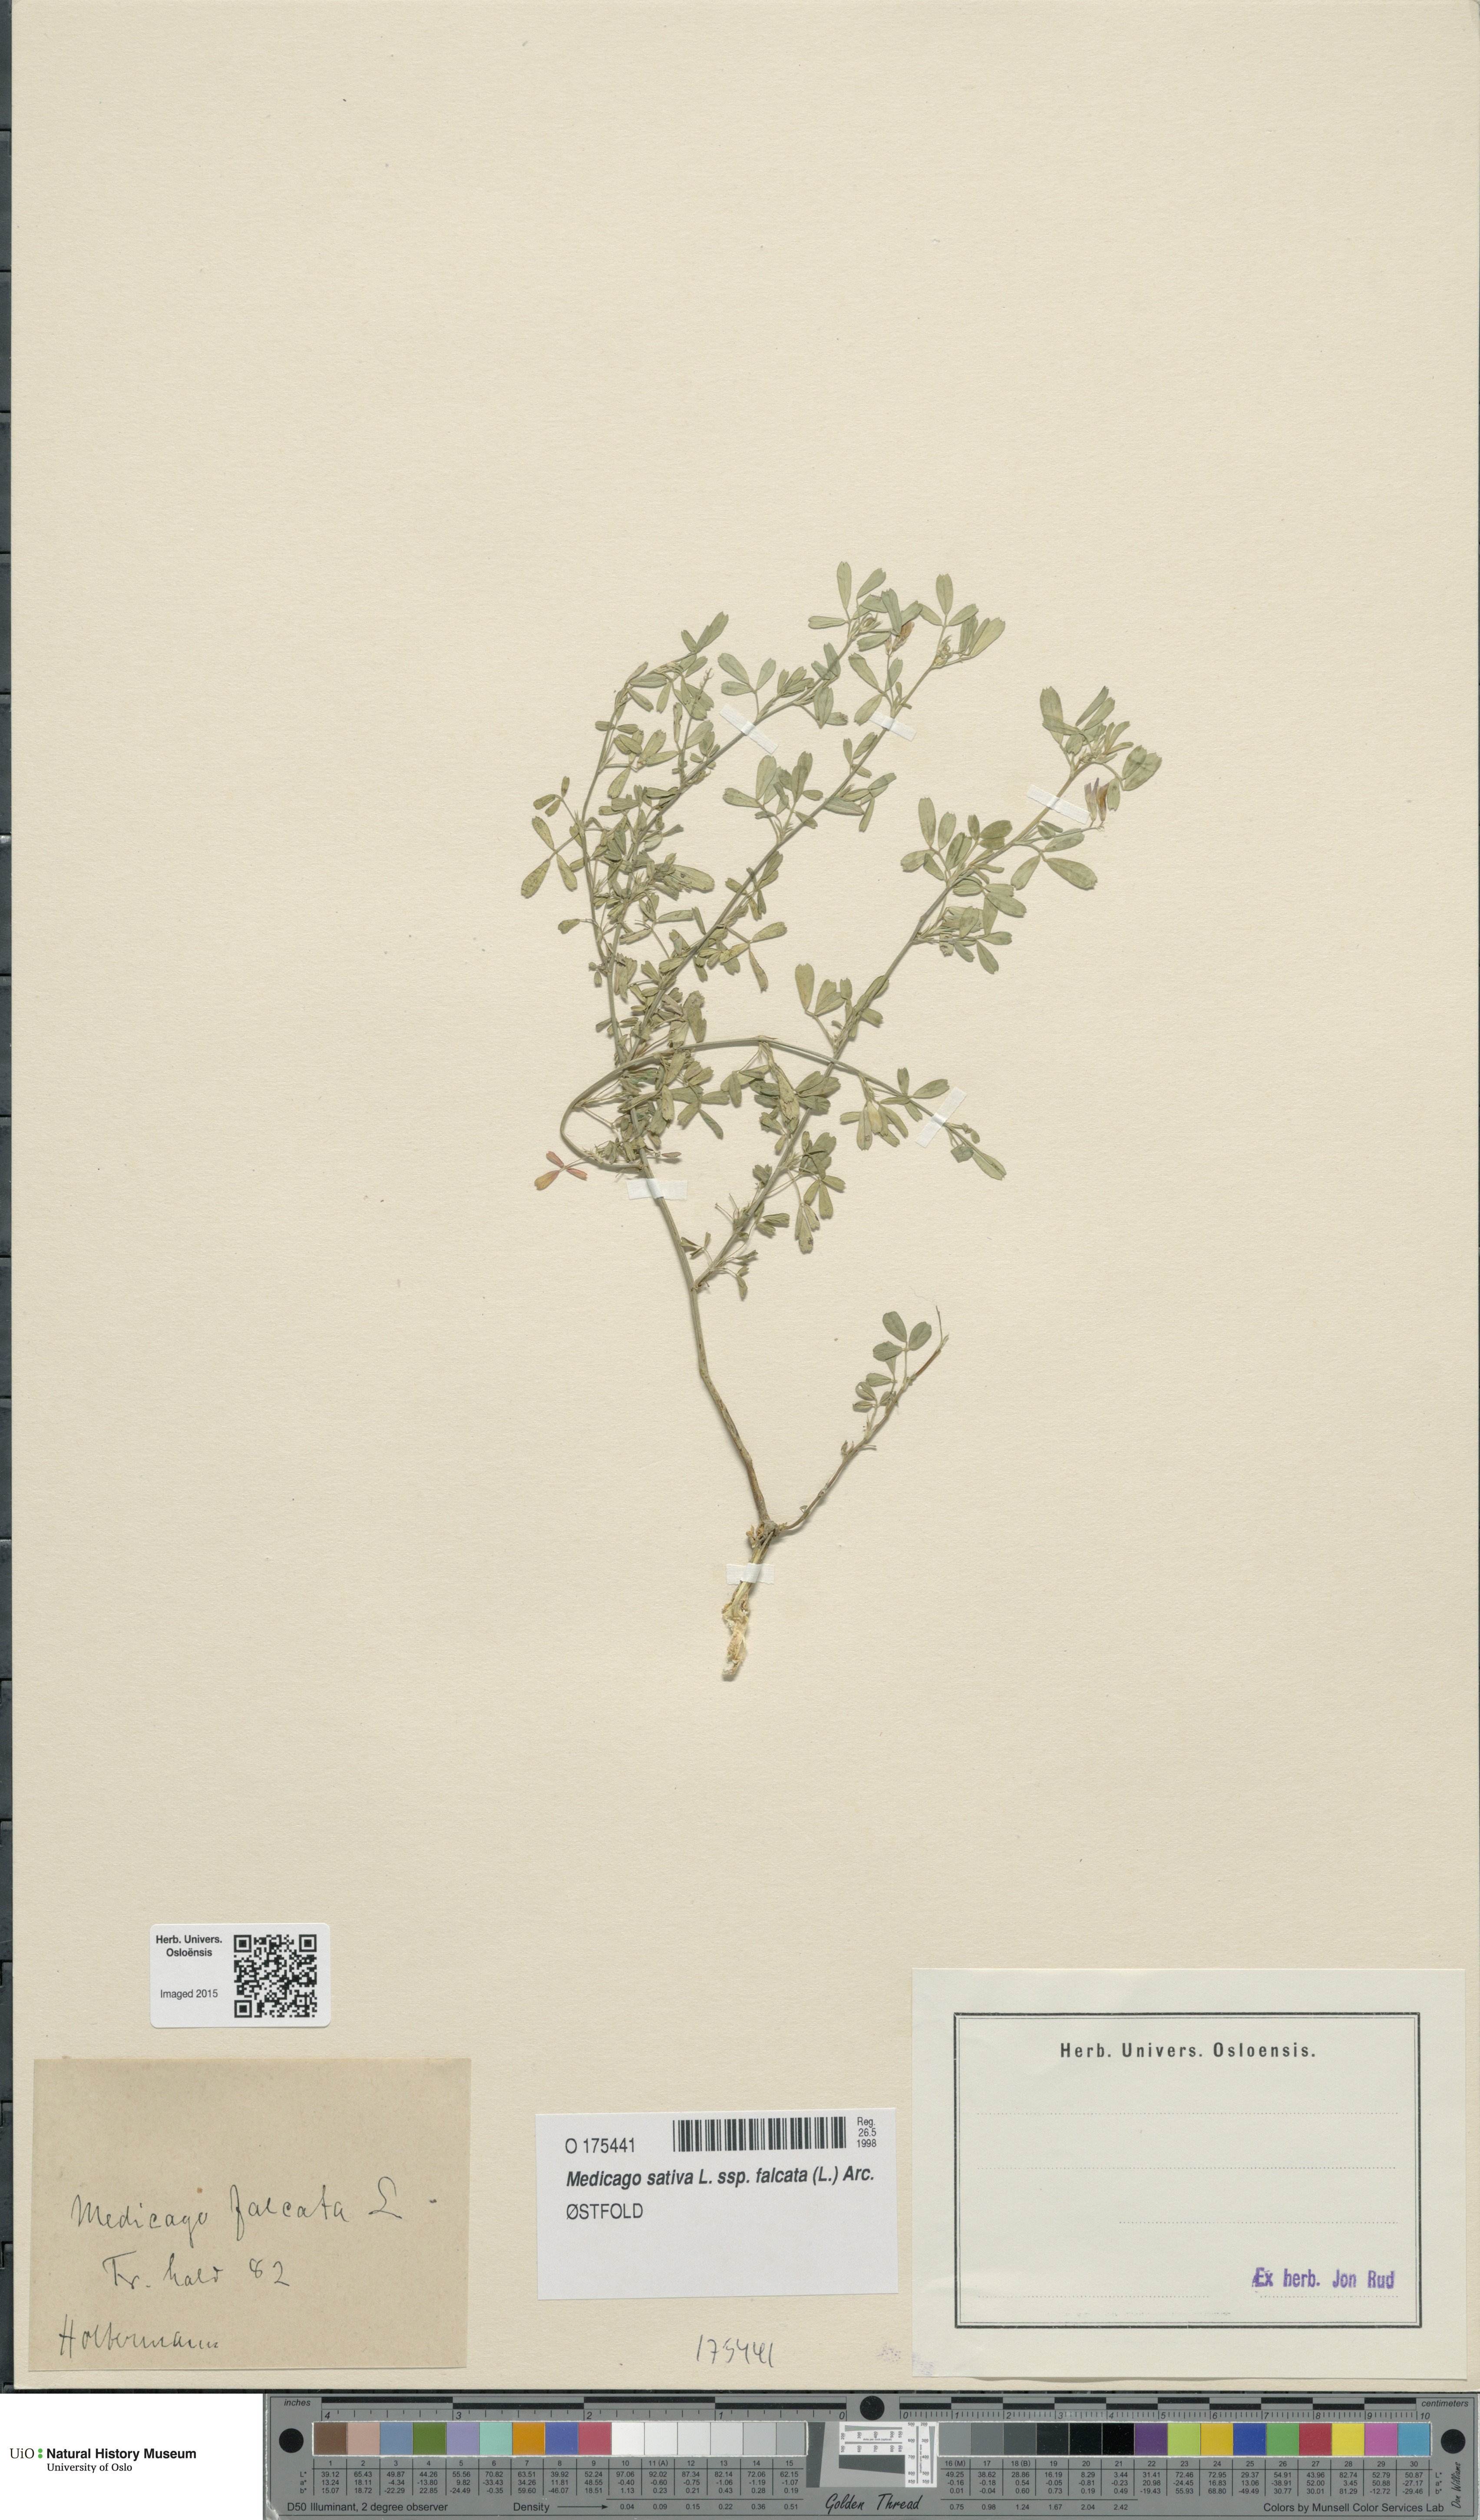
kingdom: Plantae
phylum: Tracheophyta
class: Magnoliopsida
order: Fabales
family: Fabaceae
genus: Medicago
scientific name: Medicago falcata
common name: Sickle medick
